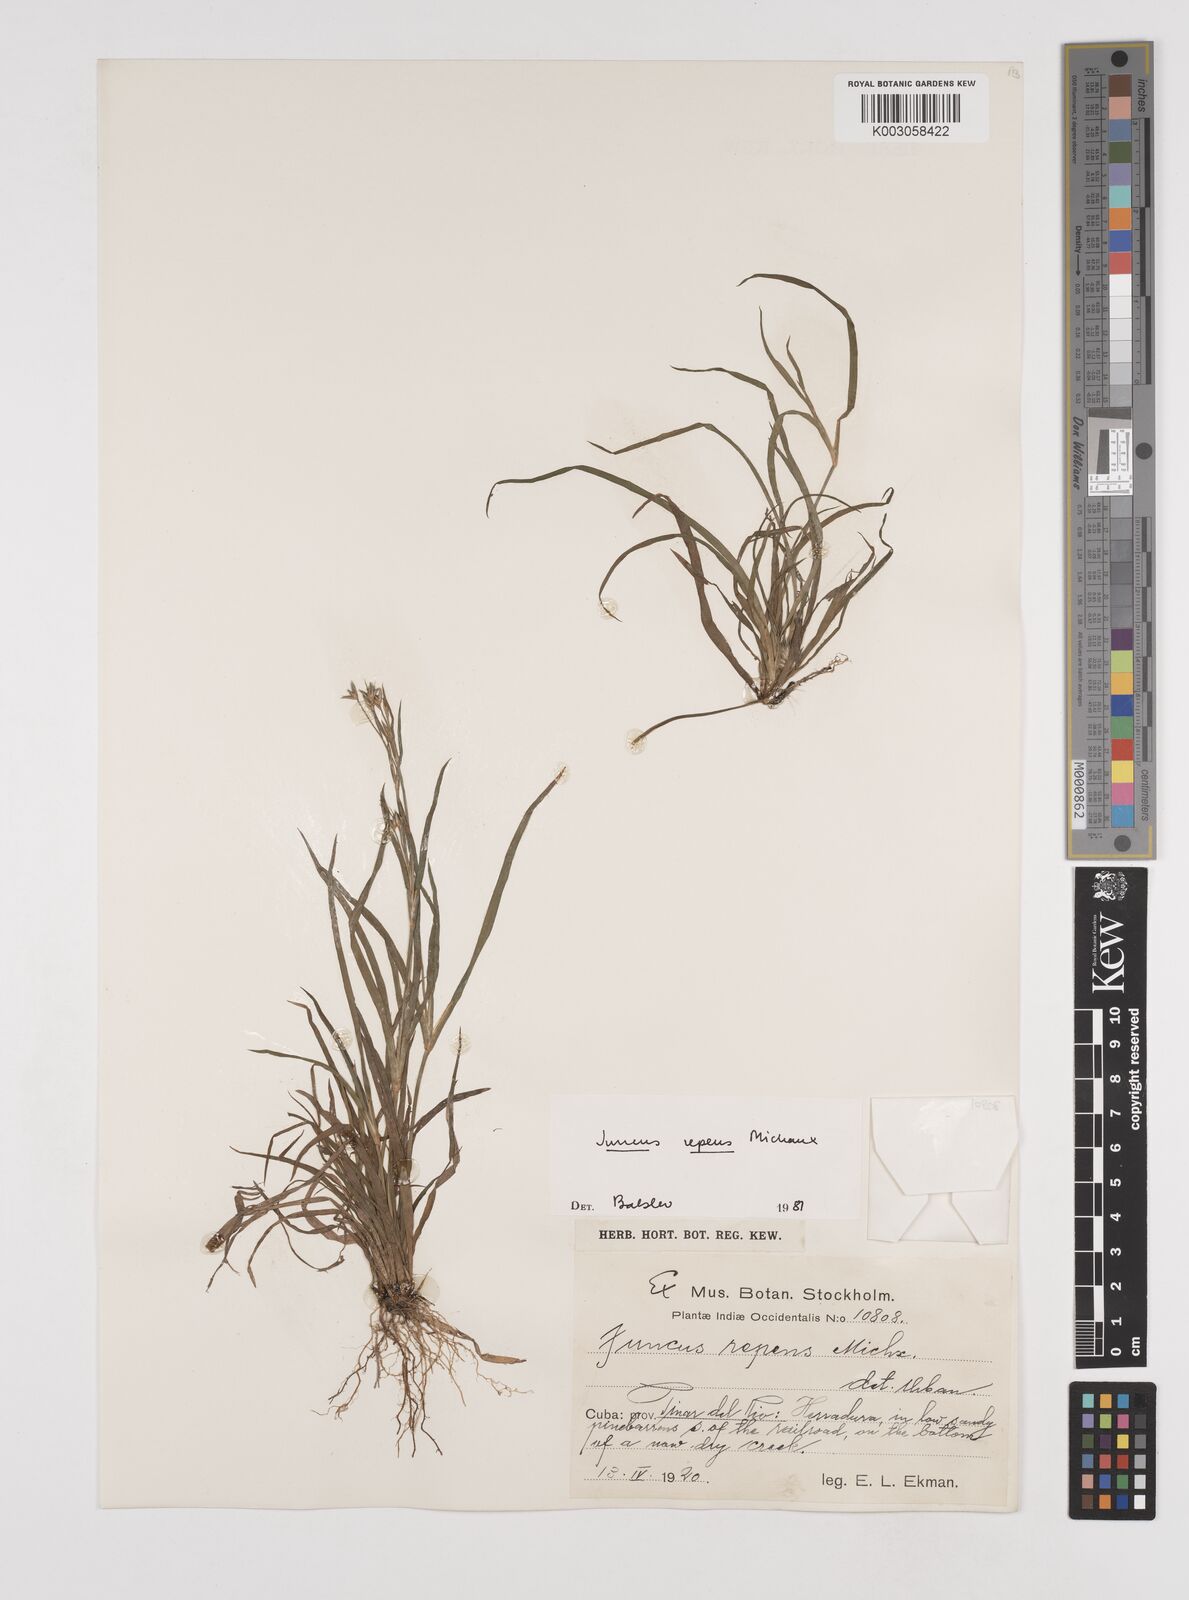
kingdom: Plantae
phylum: Tracheophyta
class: Liliopsida
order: Poales
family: Juncaceae
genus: Juncus
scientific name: Juncus repens
